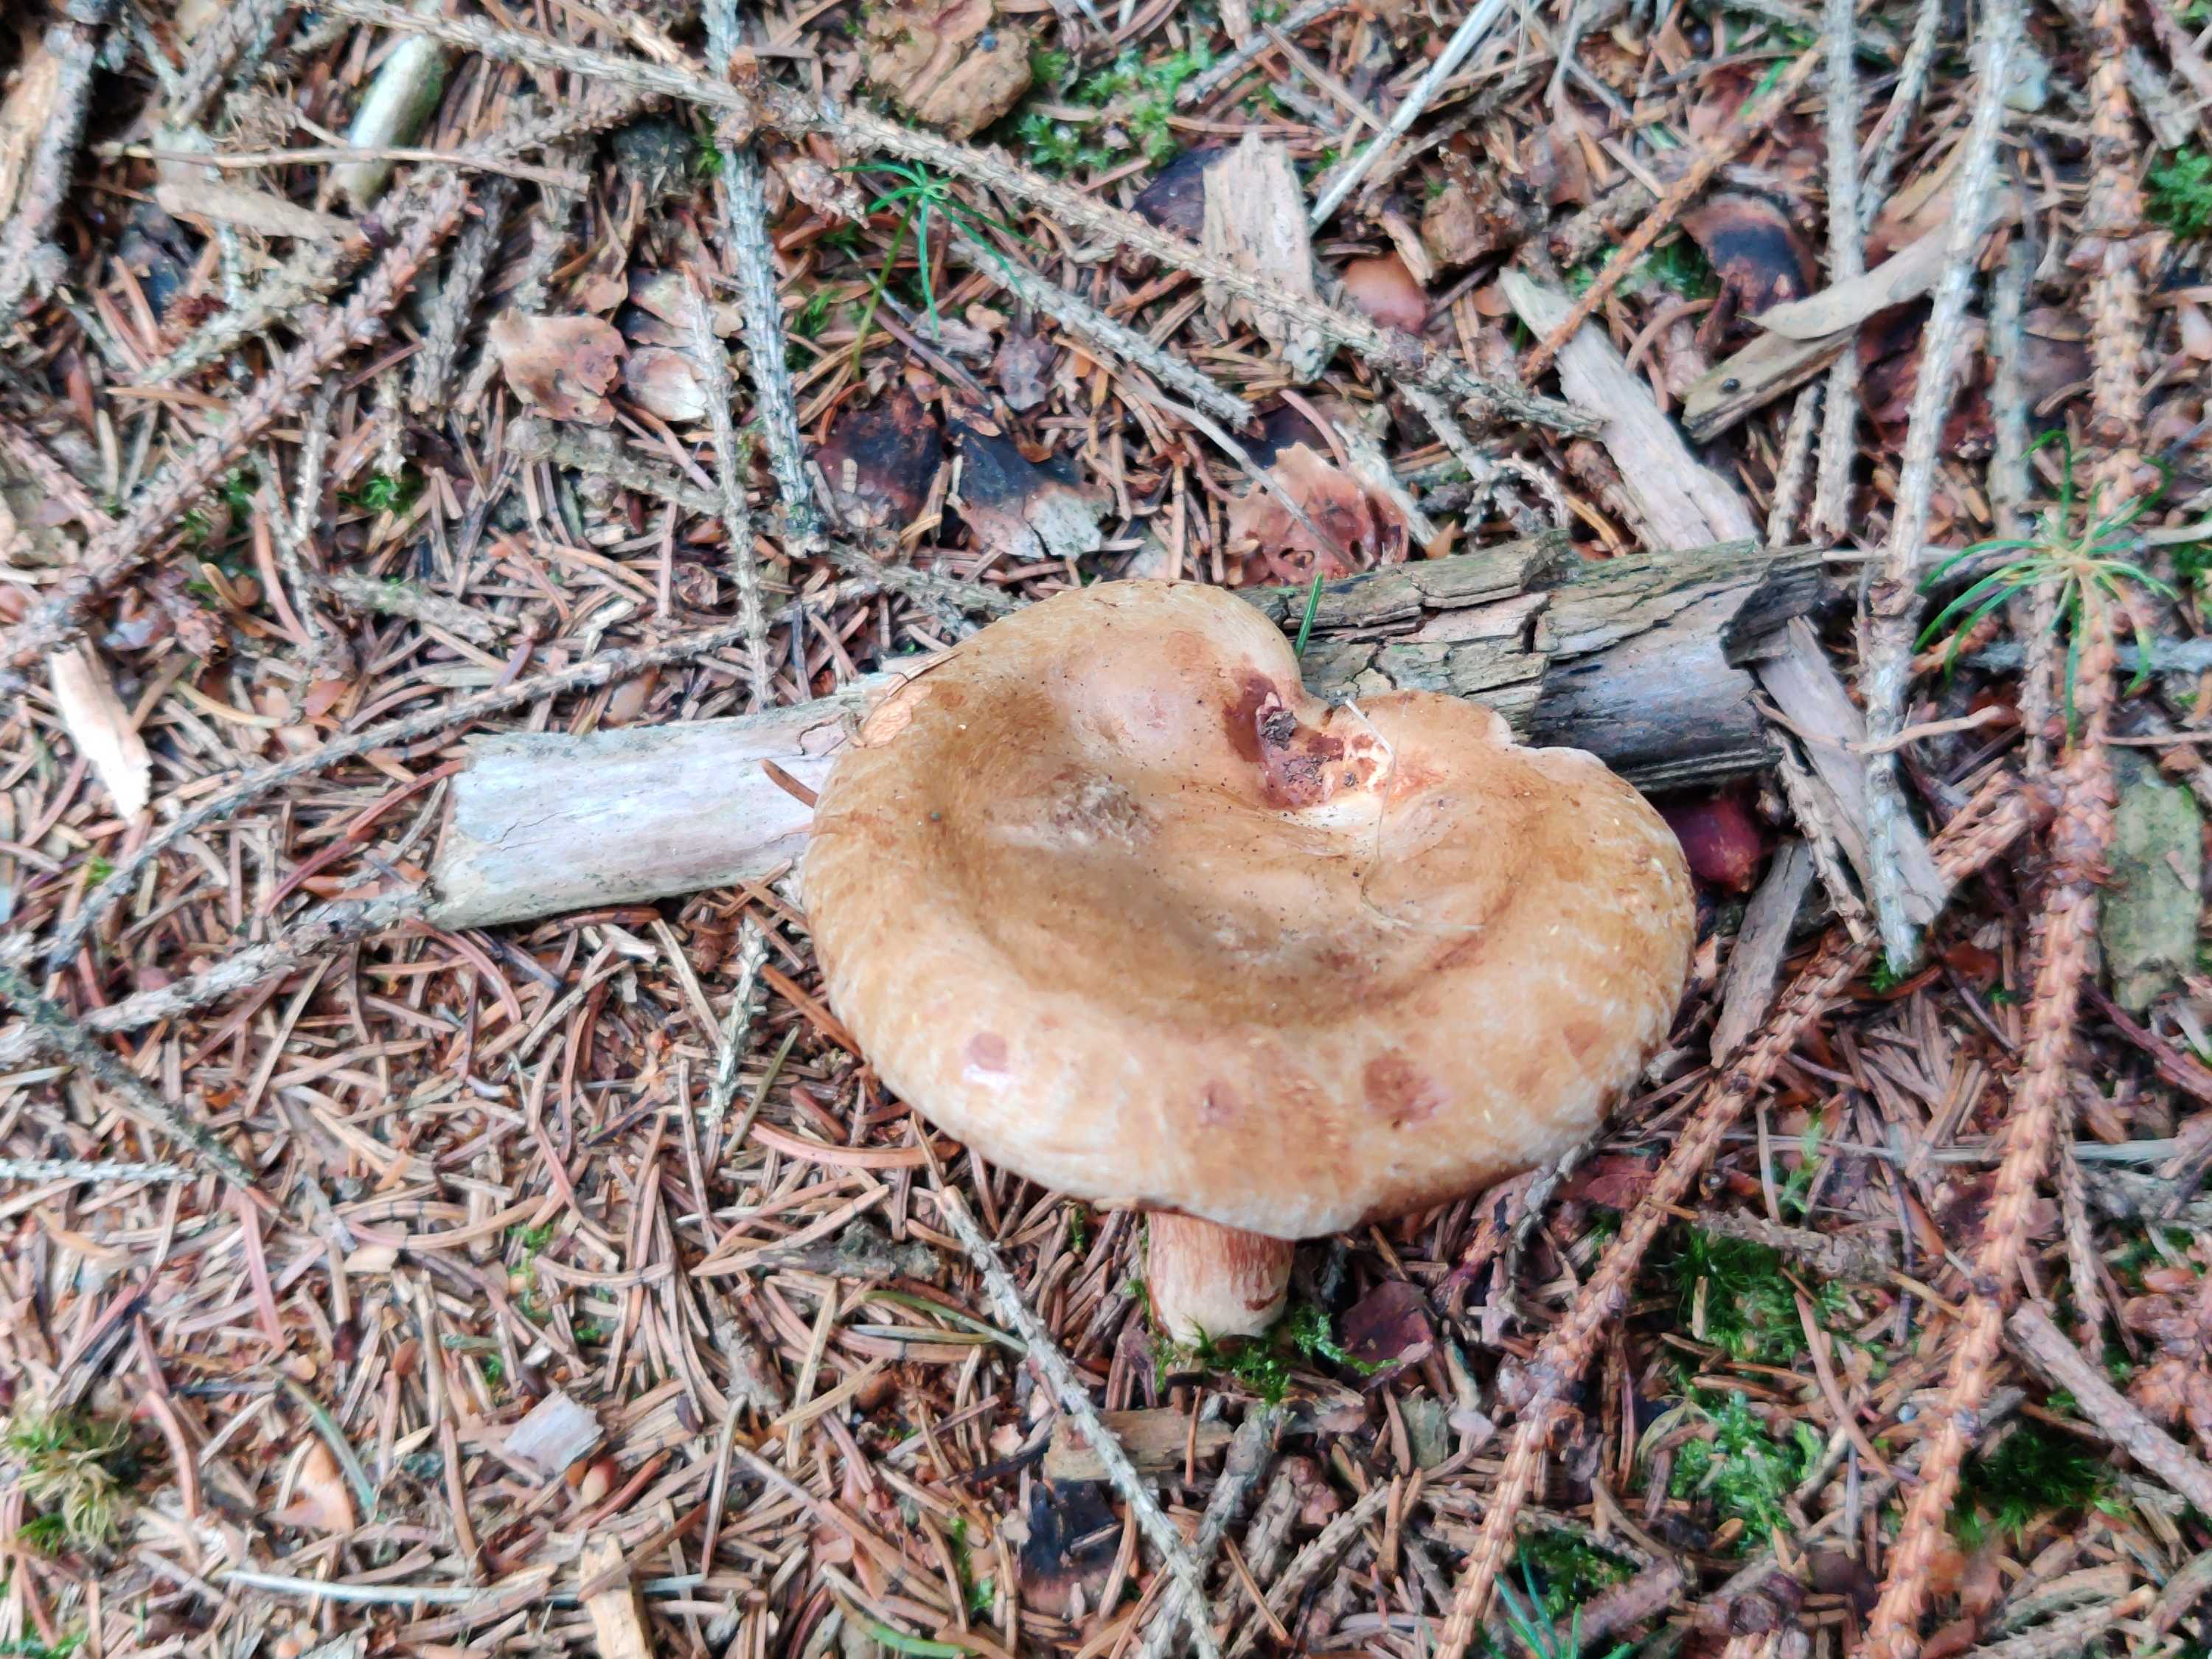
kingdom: Fungi
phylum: Basidiomycota
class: Agaricomycetes
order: Boletales
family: Paxillaceae
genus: Paxillus
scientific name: Paxillus involutus
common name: almindelig netbladhat
